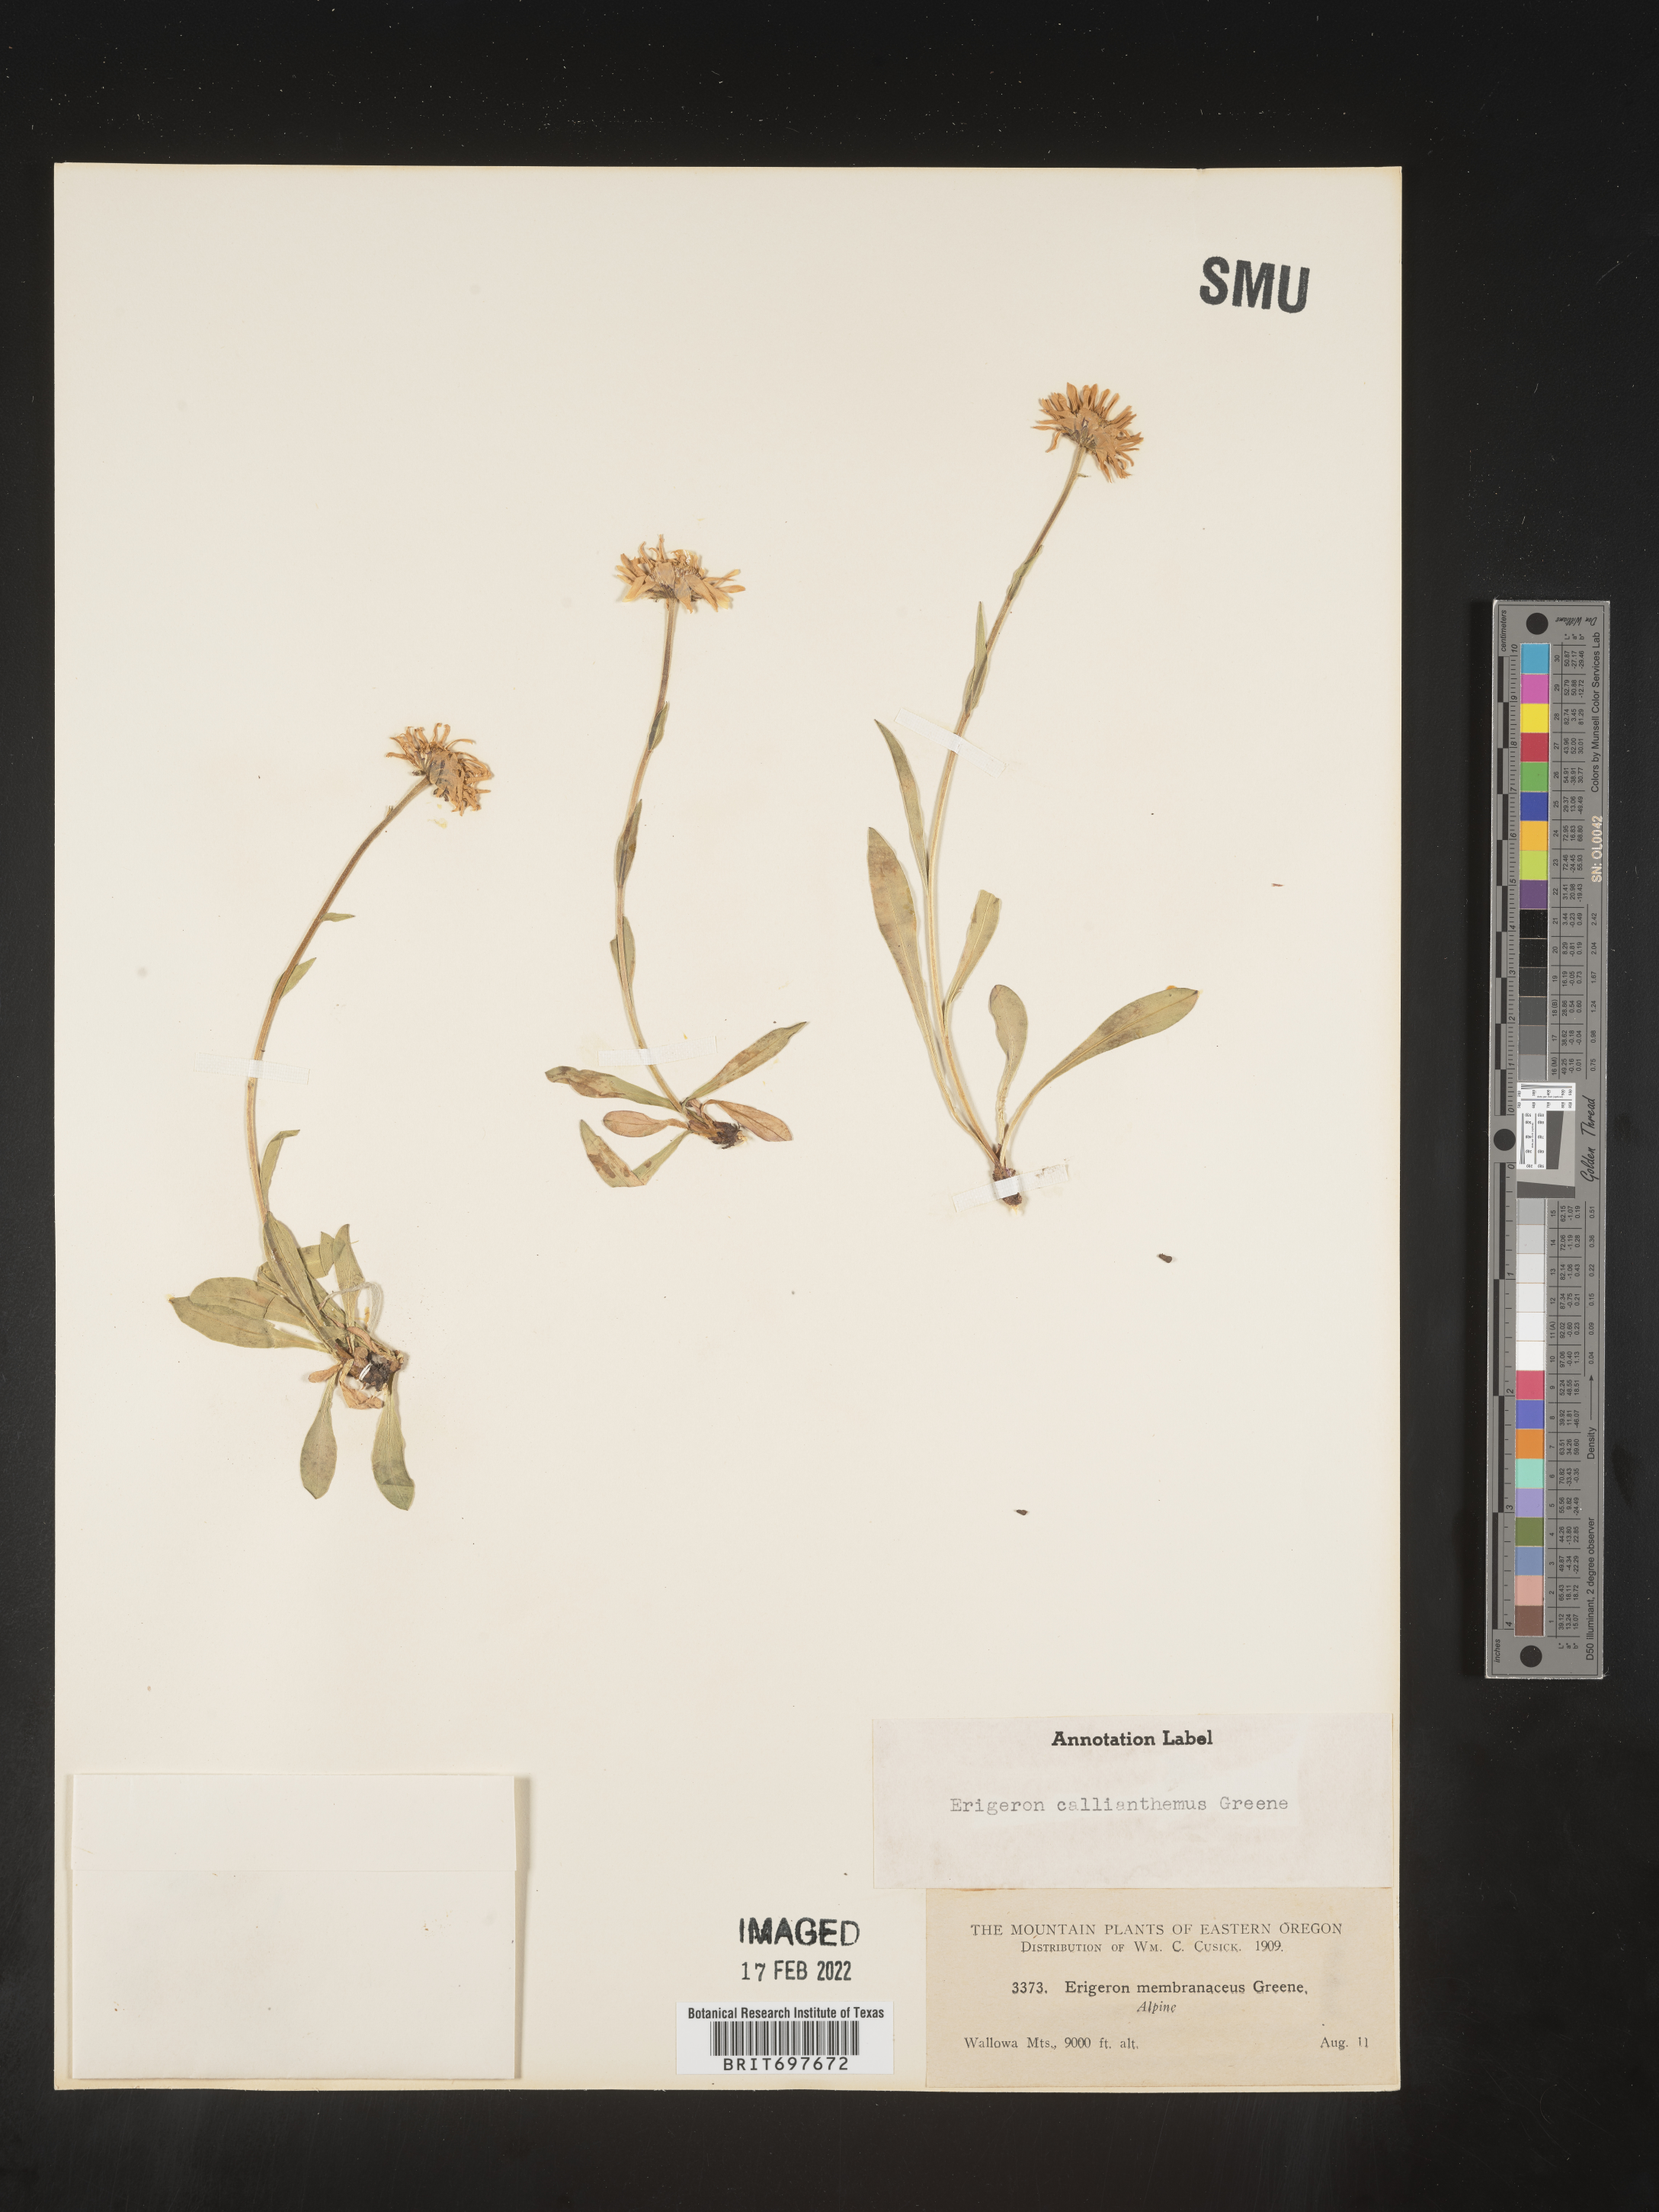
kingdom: Plantae
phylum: Tracheophyta
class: Magnoliopsida
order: Asterales
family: Asteraceae
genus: Erigeron
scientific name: Erigeron glacialis
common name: Subalpine fleabane
